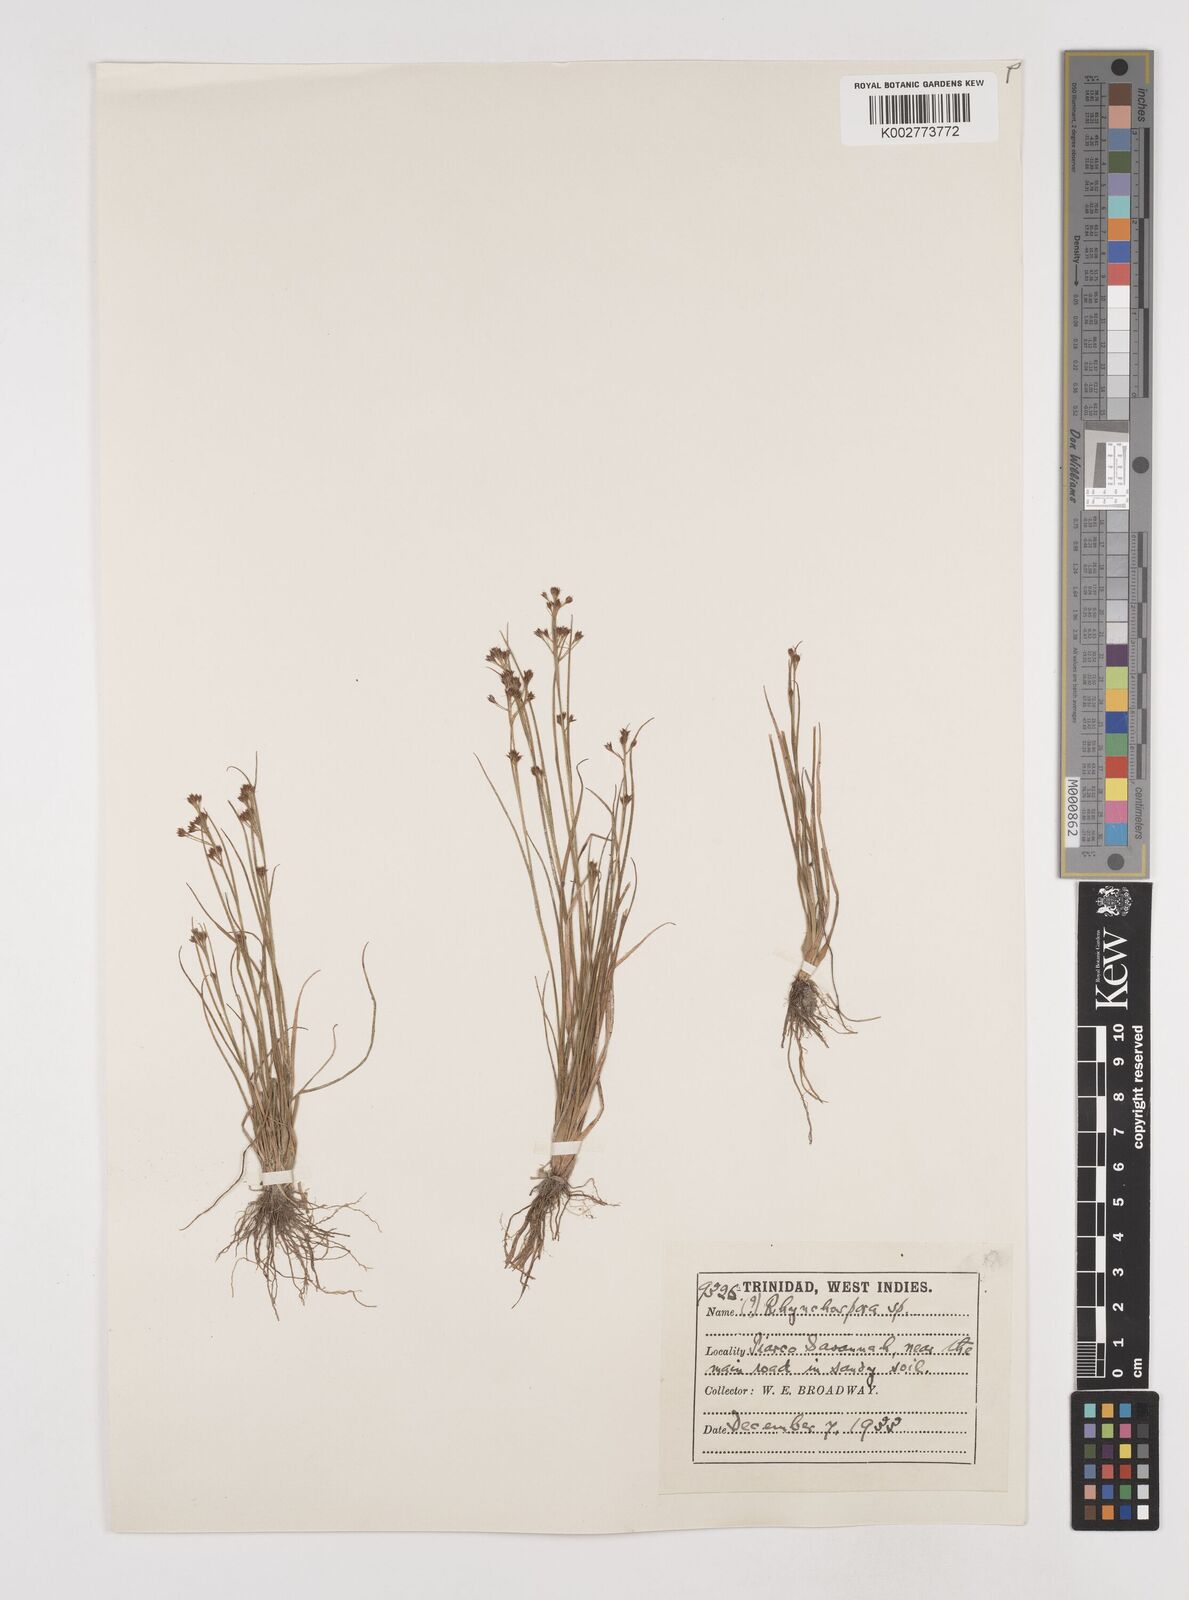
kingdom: Plantae
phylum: Tracheophyta
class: Liliopsida
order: Poales
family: Cyperaceae
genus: Rhynchospora
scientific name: Rhynchospora hirsuta
